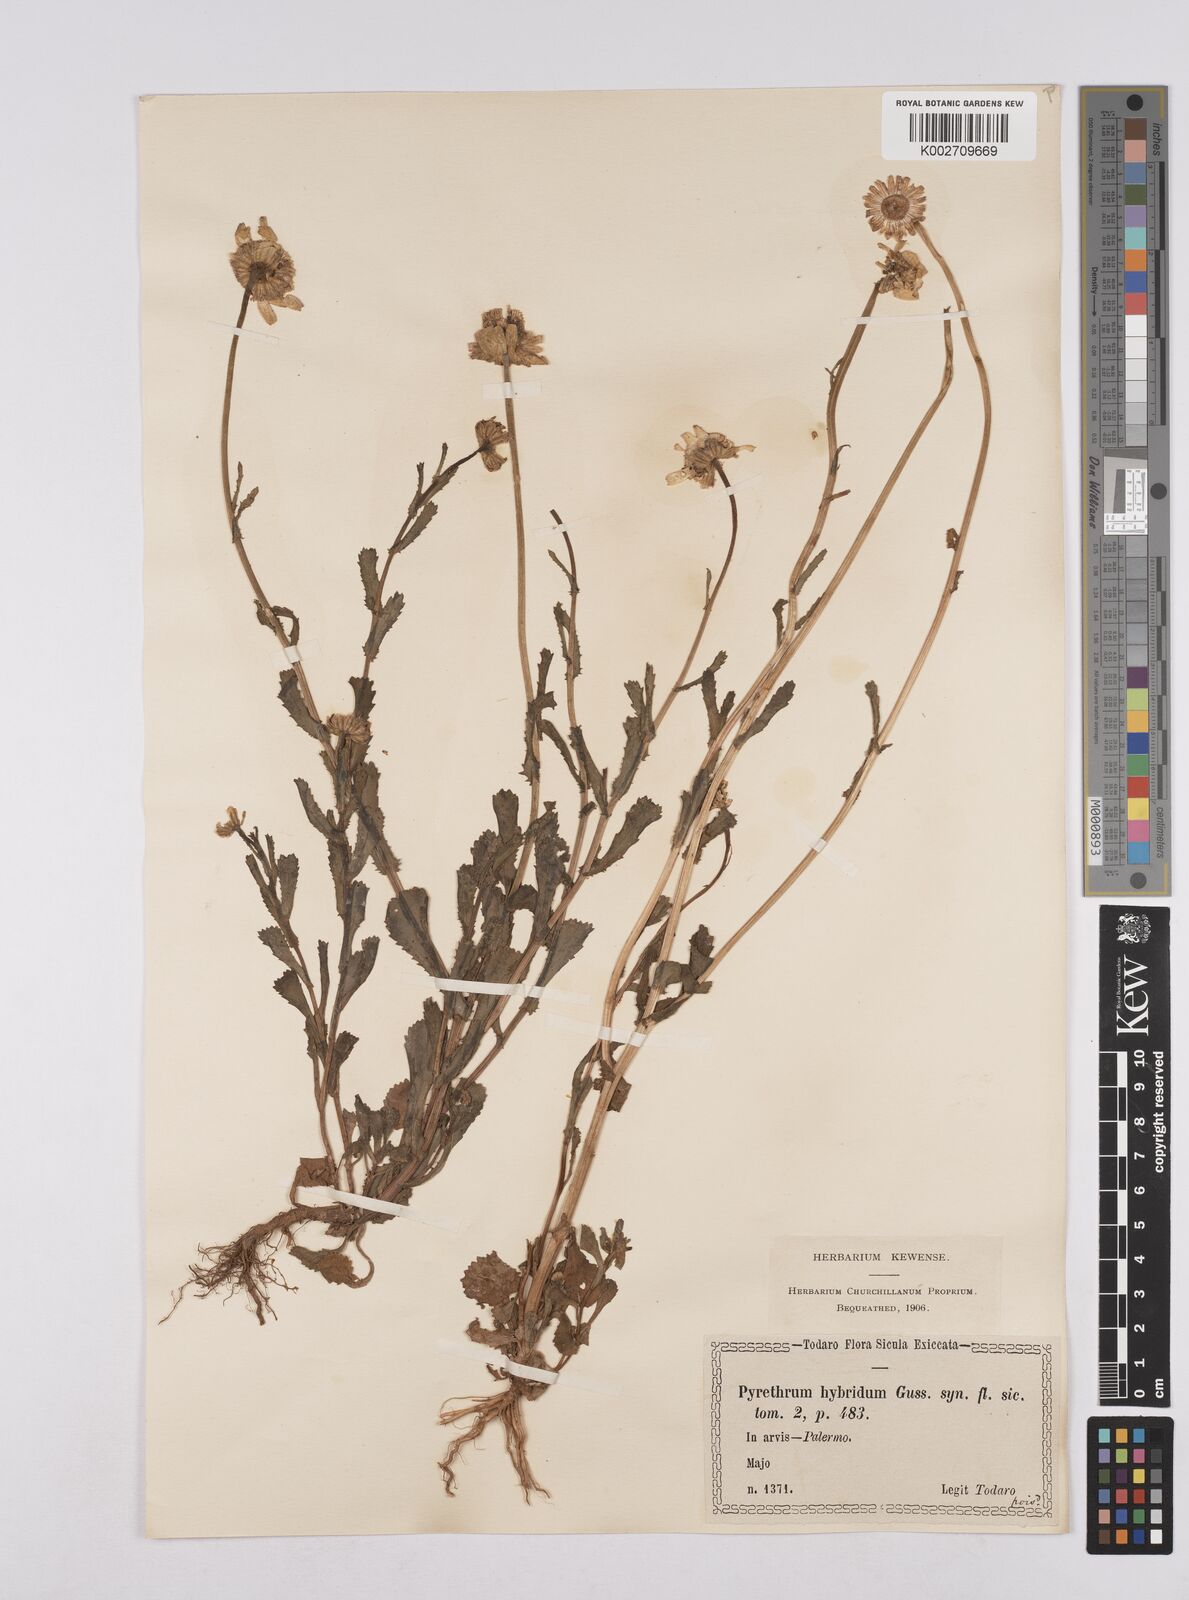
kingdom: Plantae
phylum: Tracheophyta
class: Magnoliopsida
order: Asterales
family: Asteraceae
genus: Coleostephus
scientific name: Coleostephus paludosus
